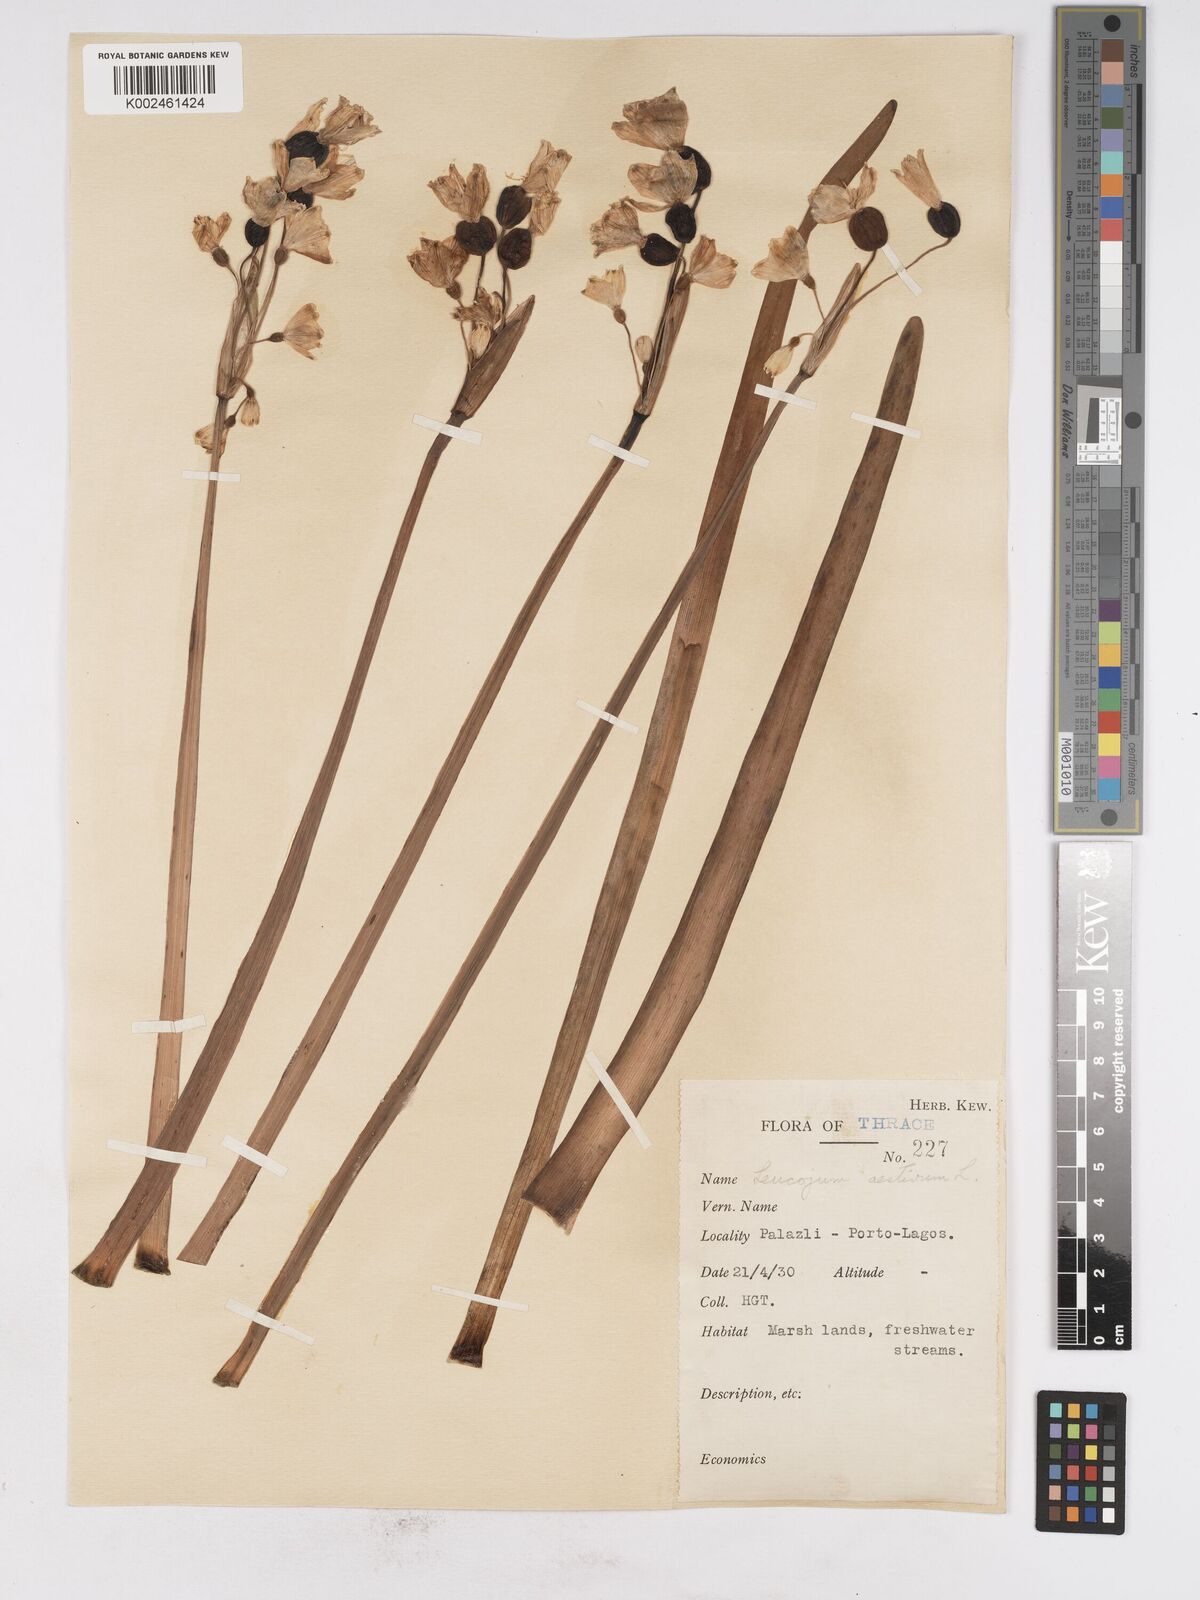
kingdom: Plantae
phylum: Tracheophyta
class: Liliopsida
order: Asparagales
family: Amaryllidaceae
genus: Leucojum
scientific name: Leucojum aestivum
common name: Summer snowflake
